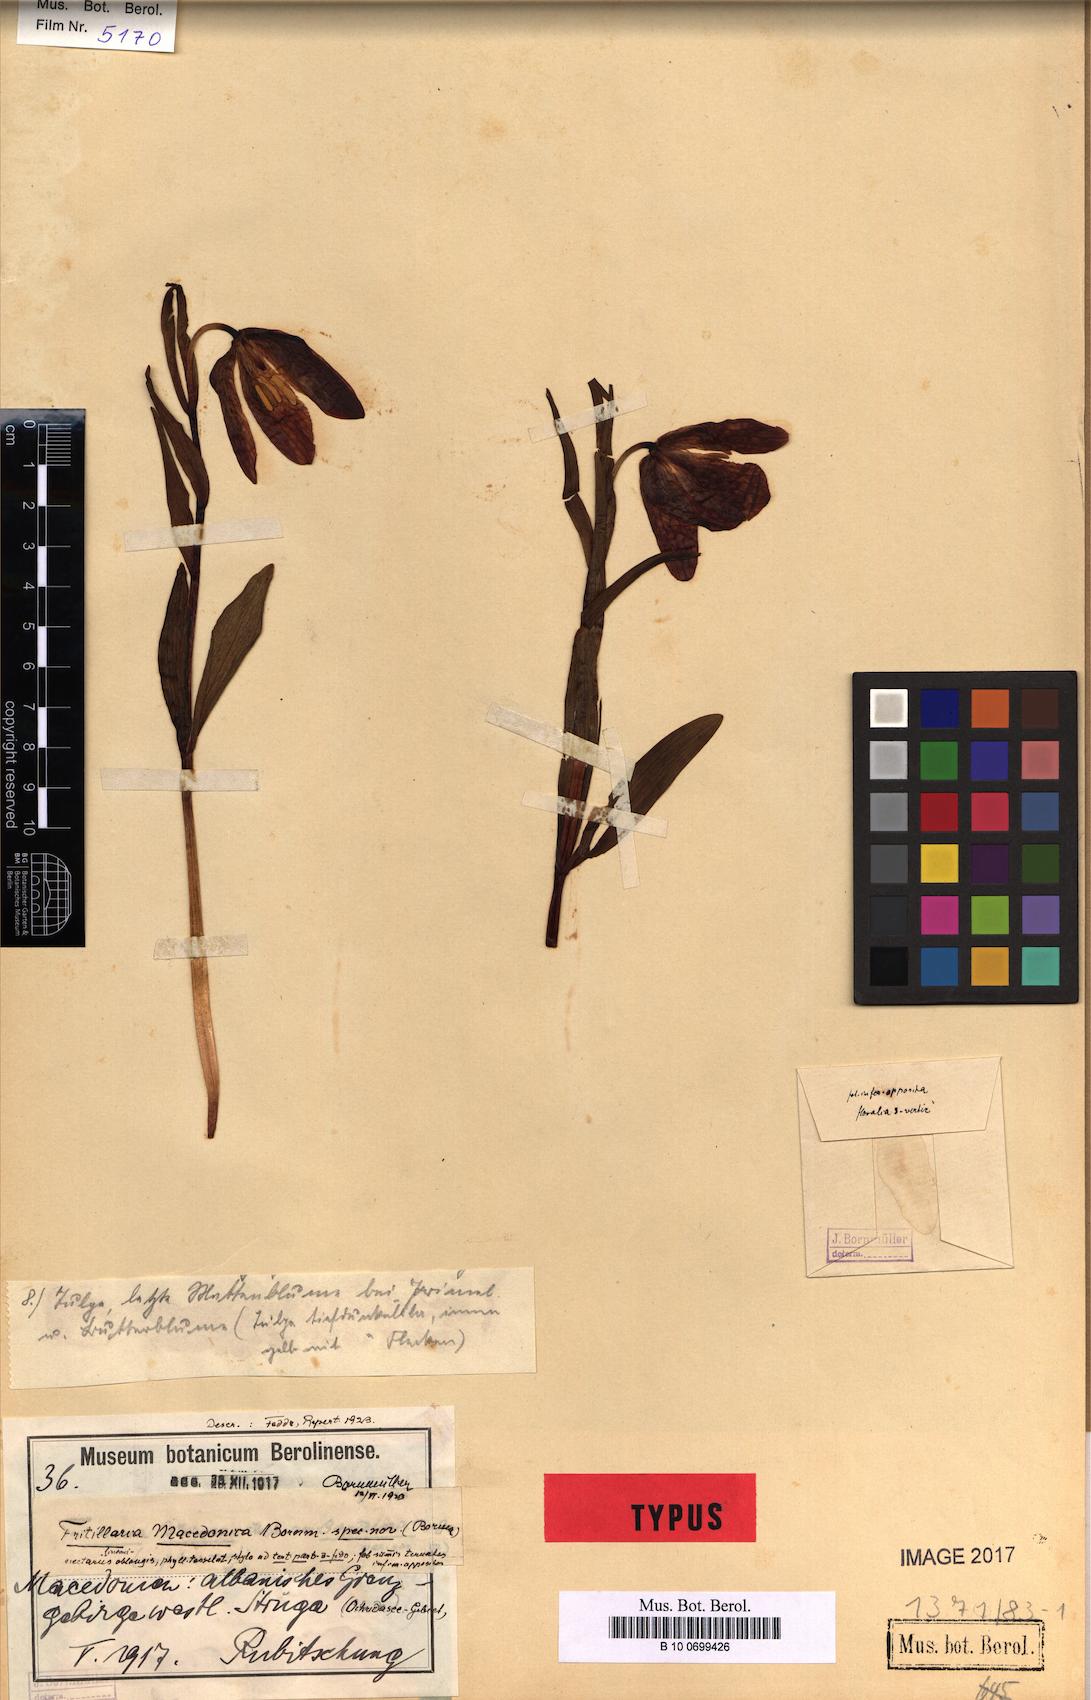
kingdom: Plantae
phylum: Tracheophyta
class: Liliopsida
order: Liliales
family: Liliaceae
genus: Fritillaria
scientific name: Fritillaria macedonica
